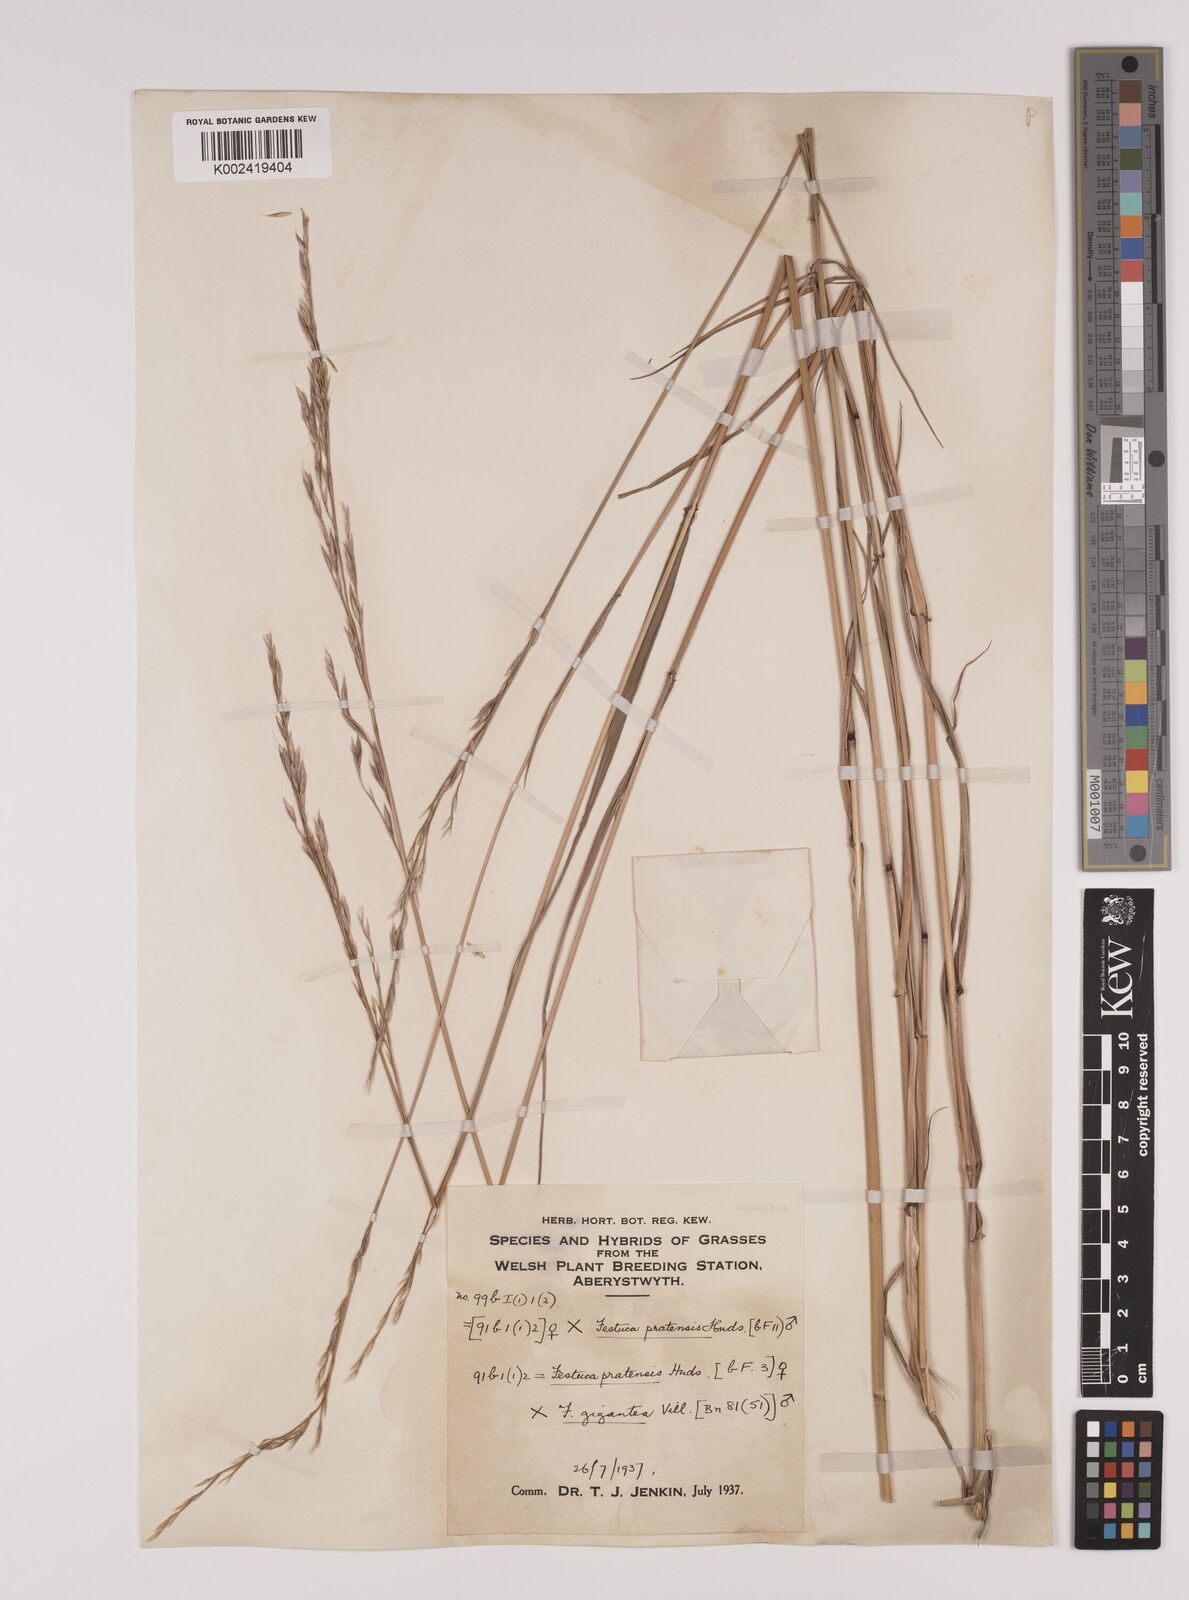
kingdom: Plantae
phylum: Tracheophyta
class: Liliopsida
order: Poales
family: Poaceae
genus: Lolium
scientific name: Lolium giganteum
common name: Giant fescue
